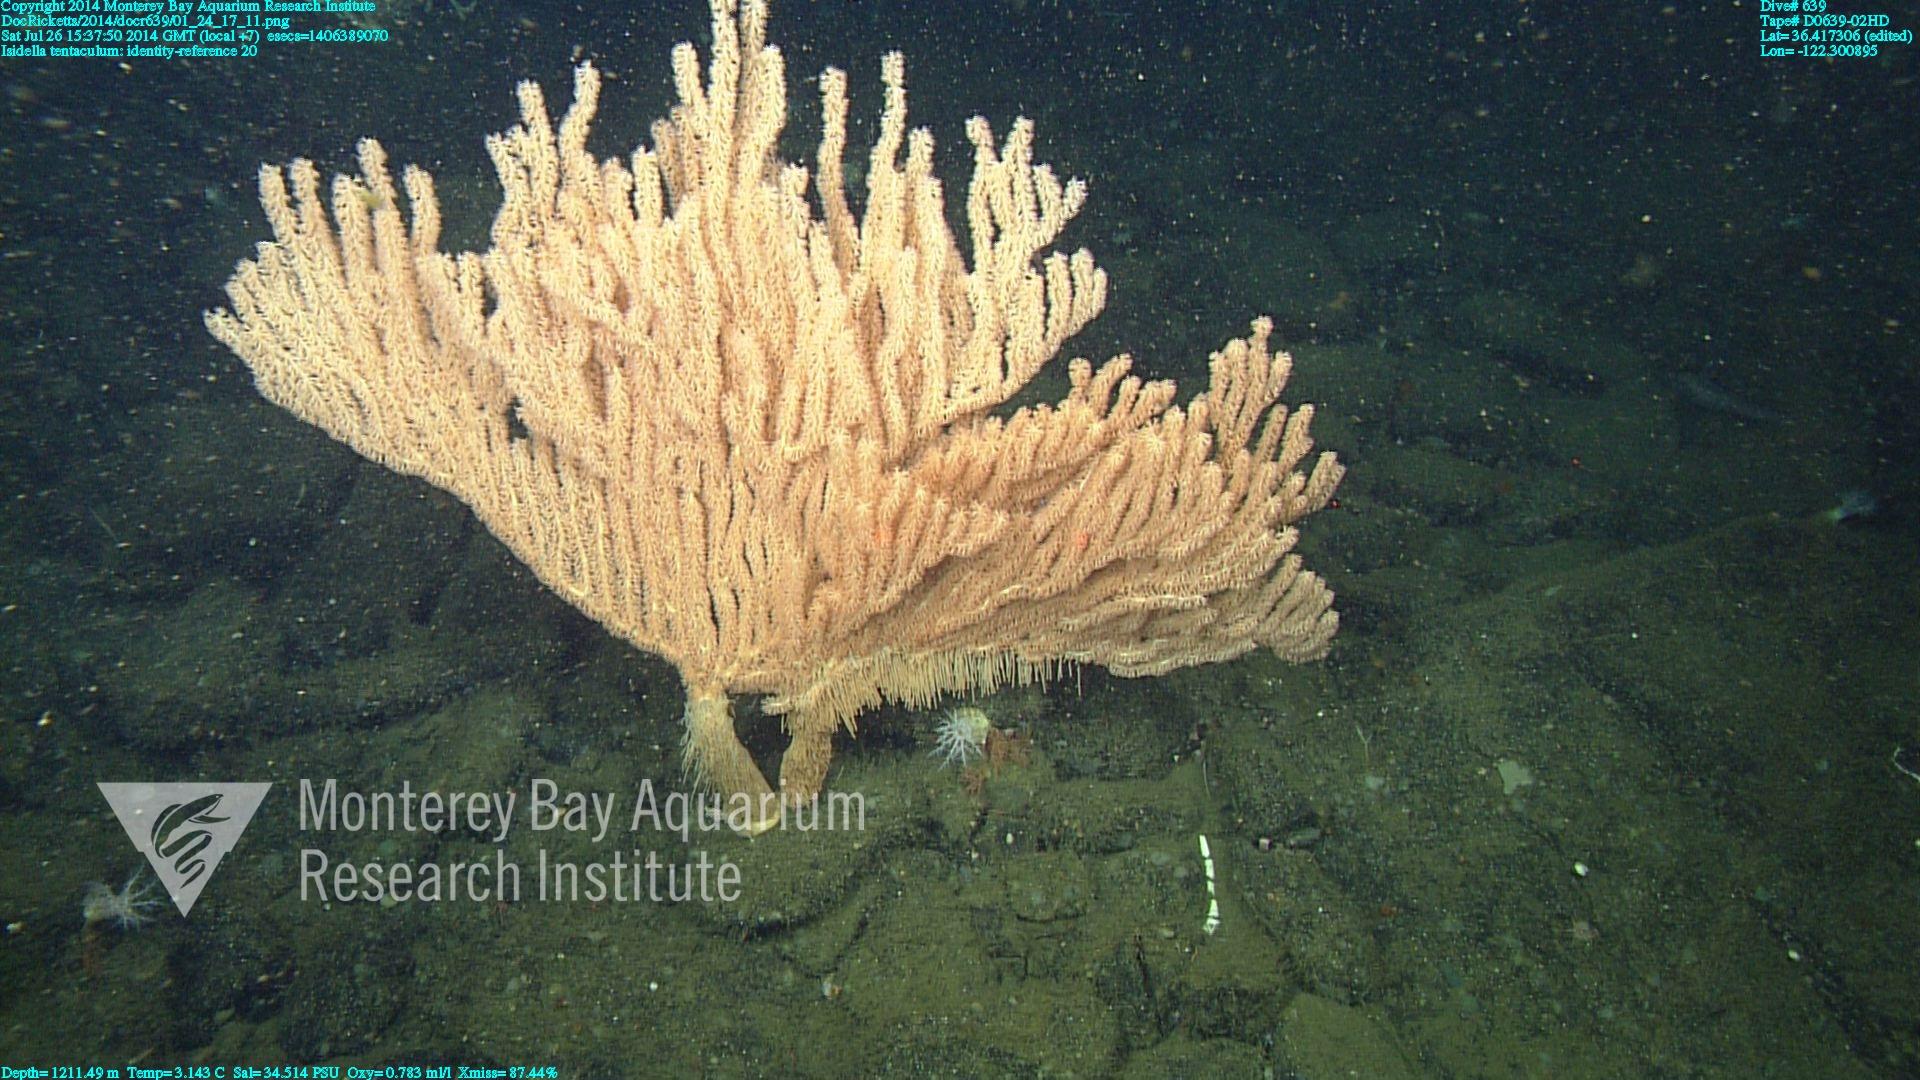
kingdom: Animalia
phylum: Cnidaria
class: Anthozoa
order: Scleralcyonacea
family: Keratoisididae
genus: Isidella
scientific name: Isidella tentaculum
